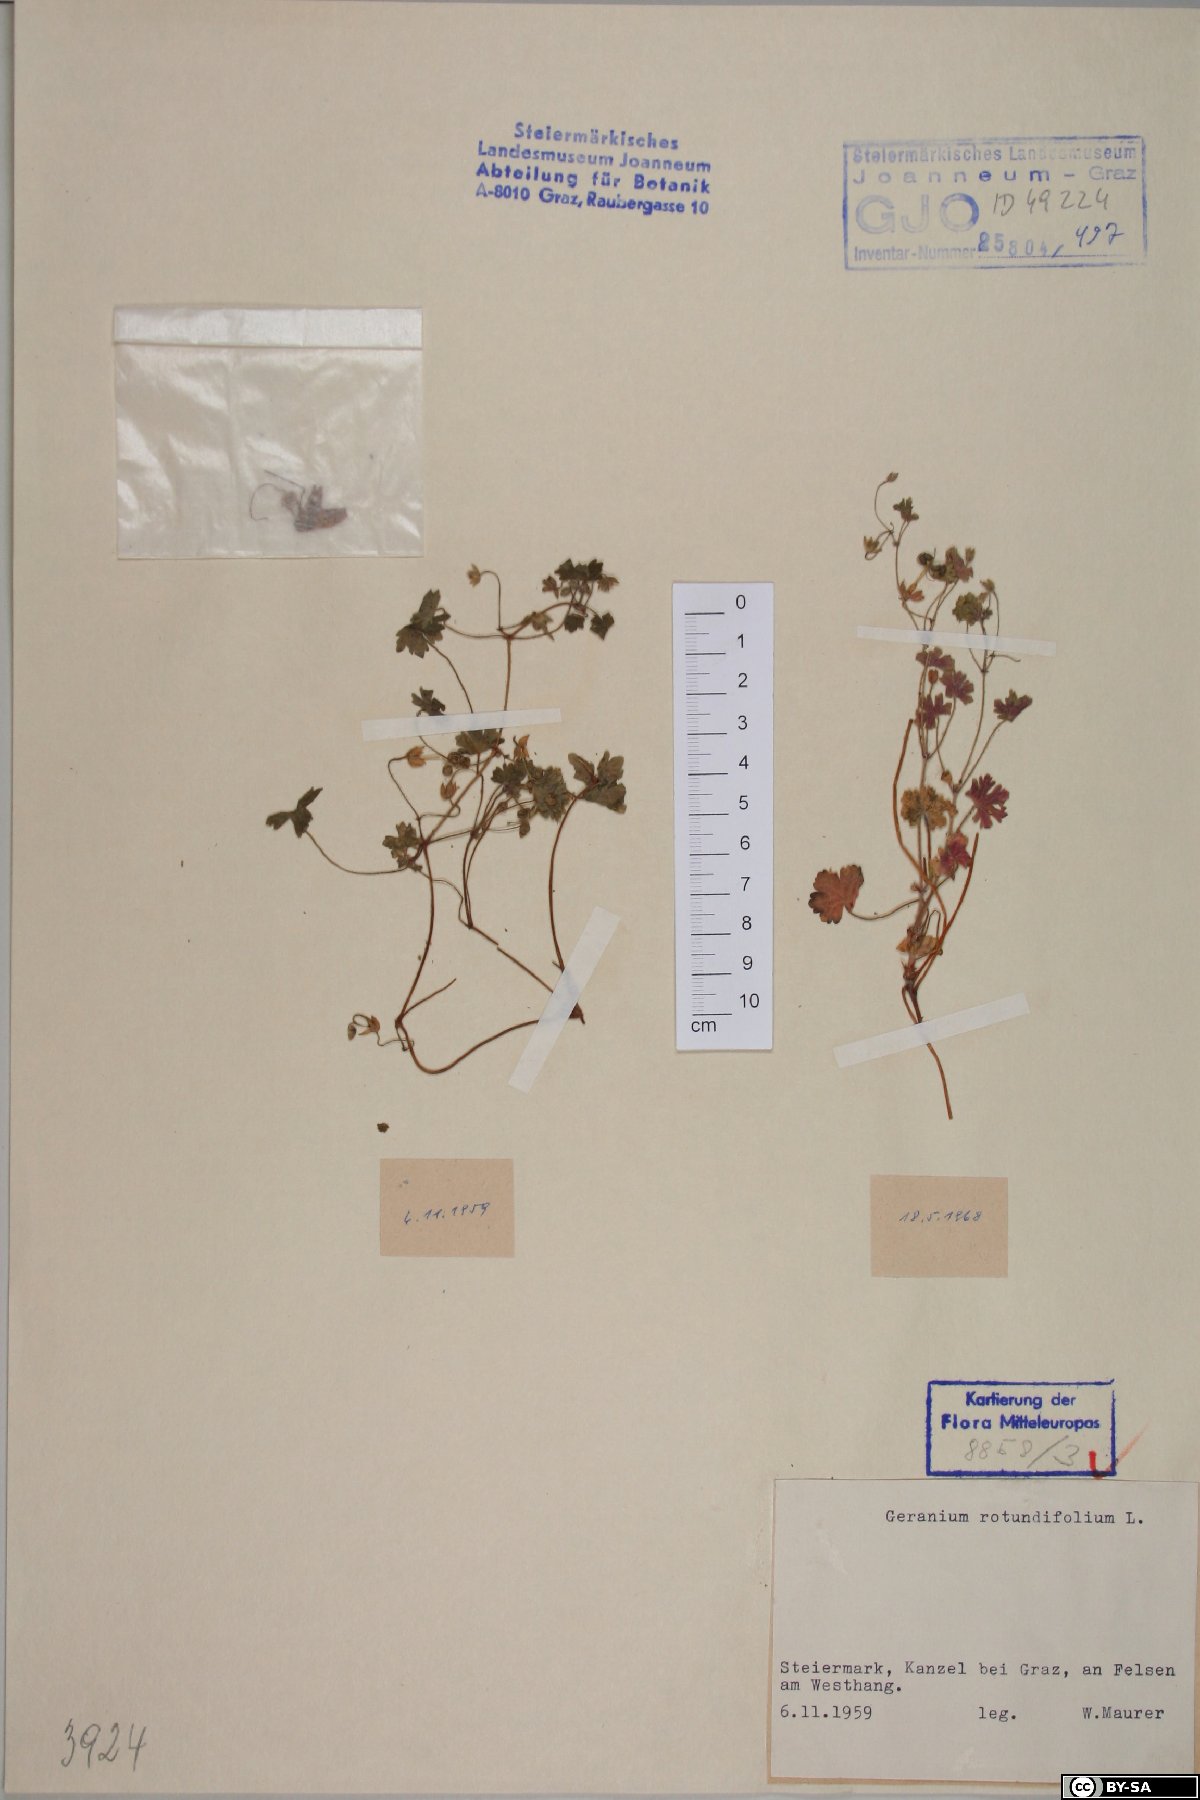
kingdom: Plantae
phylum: Tracheophyta
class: Magnoliopsida
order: Geraniales
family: Geraniaceae
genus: Geranium
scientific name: Geranium rotundifolium
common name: Round-leaved crane's-bill
